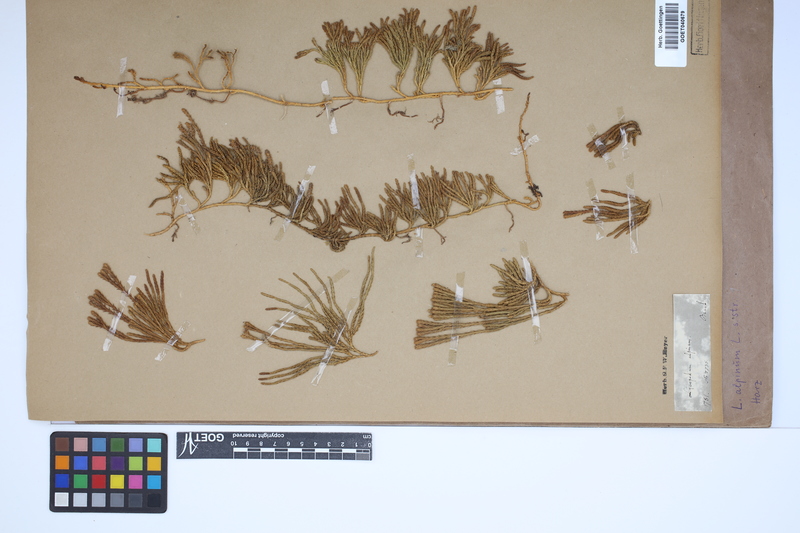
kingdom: Plantae
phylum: Tracheophyta
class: Lycopodiopsida
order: Lycopodiales
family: Lycopodiaceae
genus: Diphasiastrum
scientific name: Diphasiastrum alpinum
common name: Alpine clubmoss
